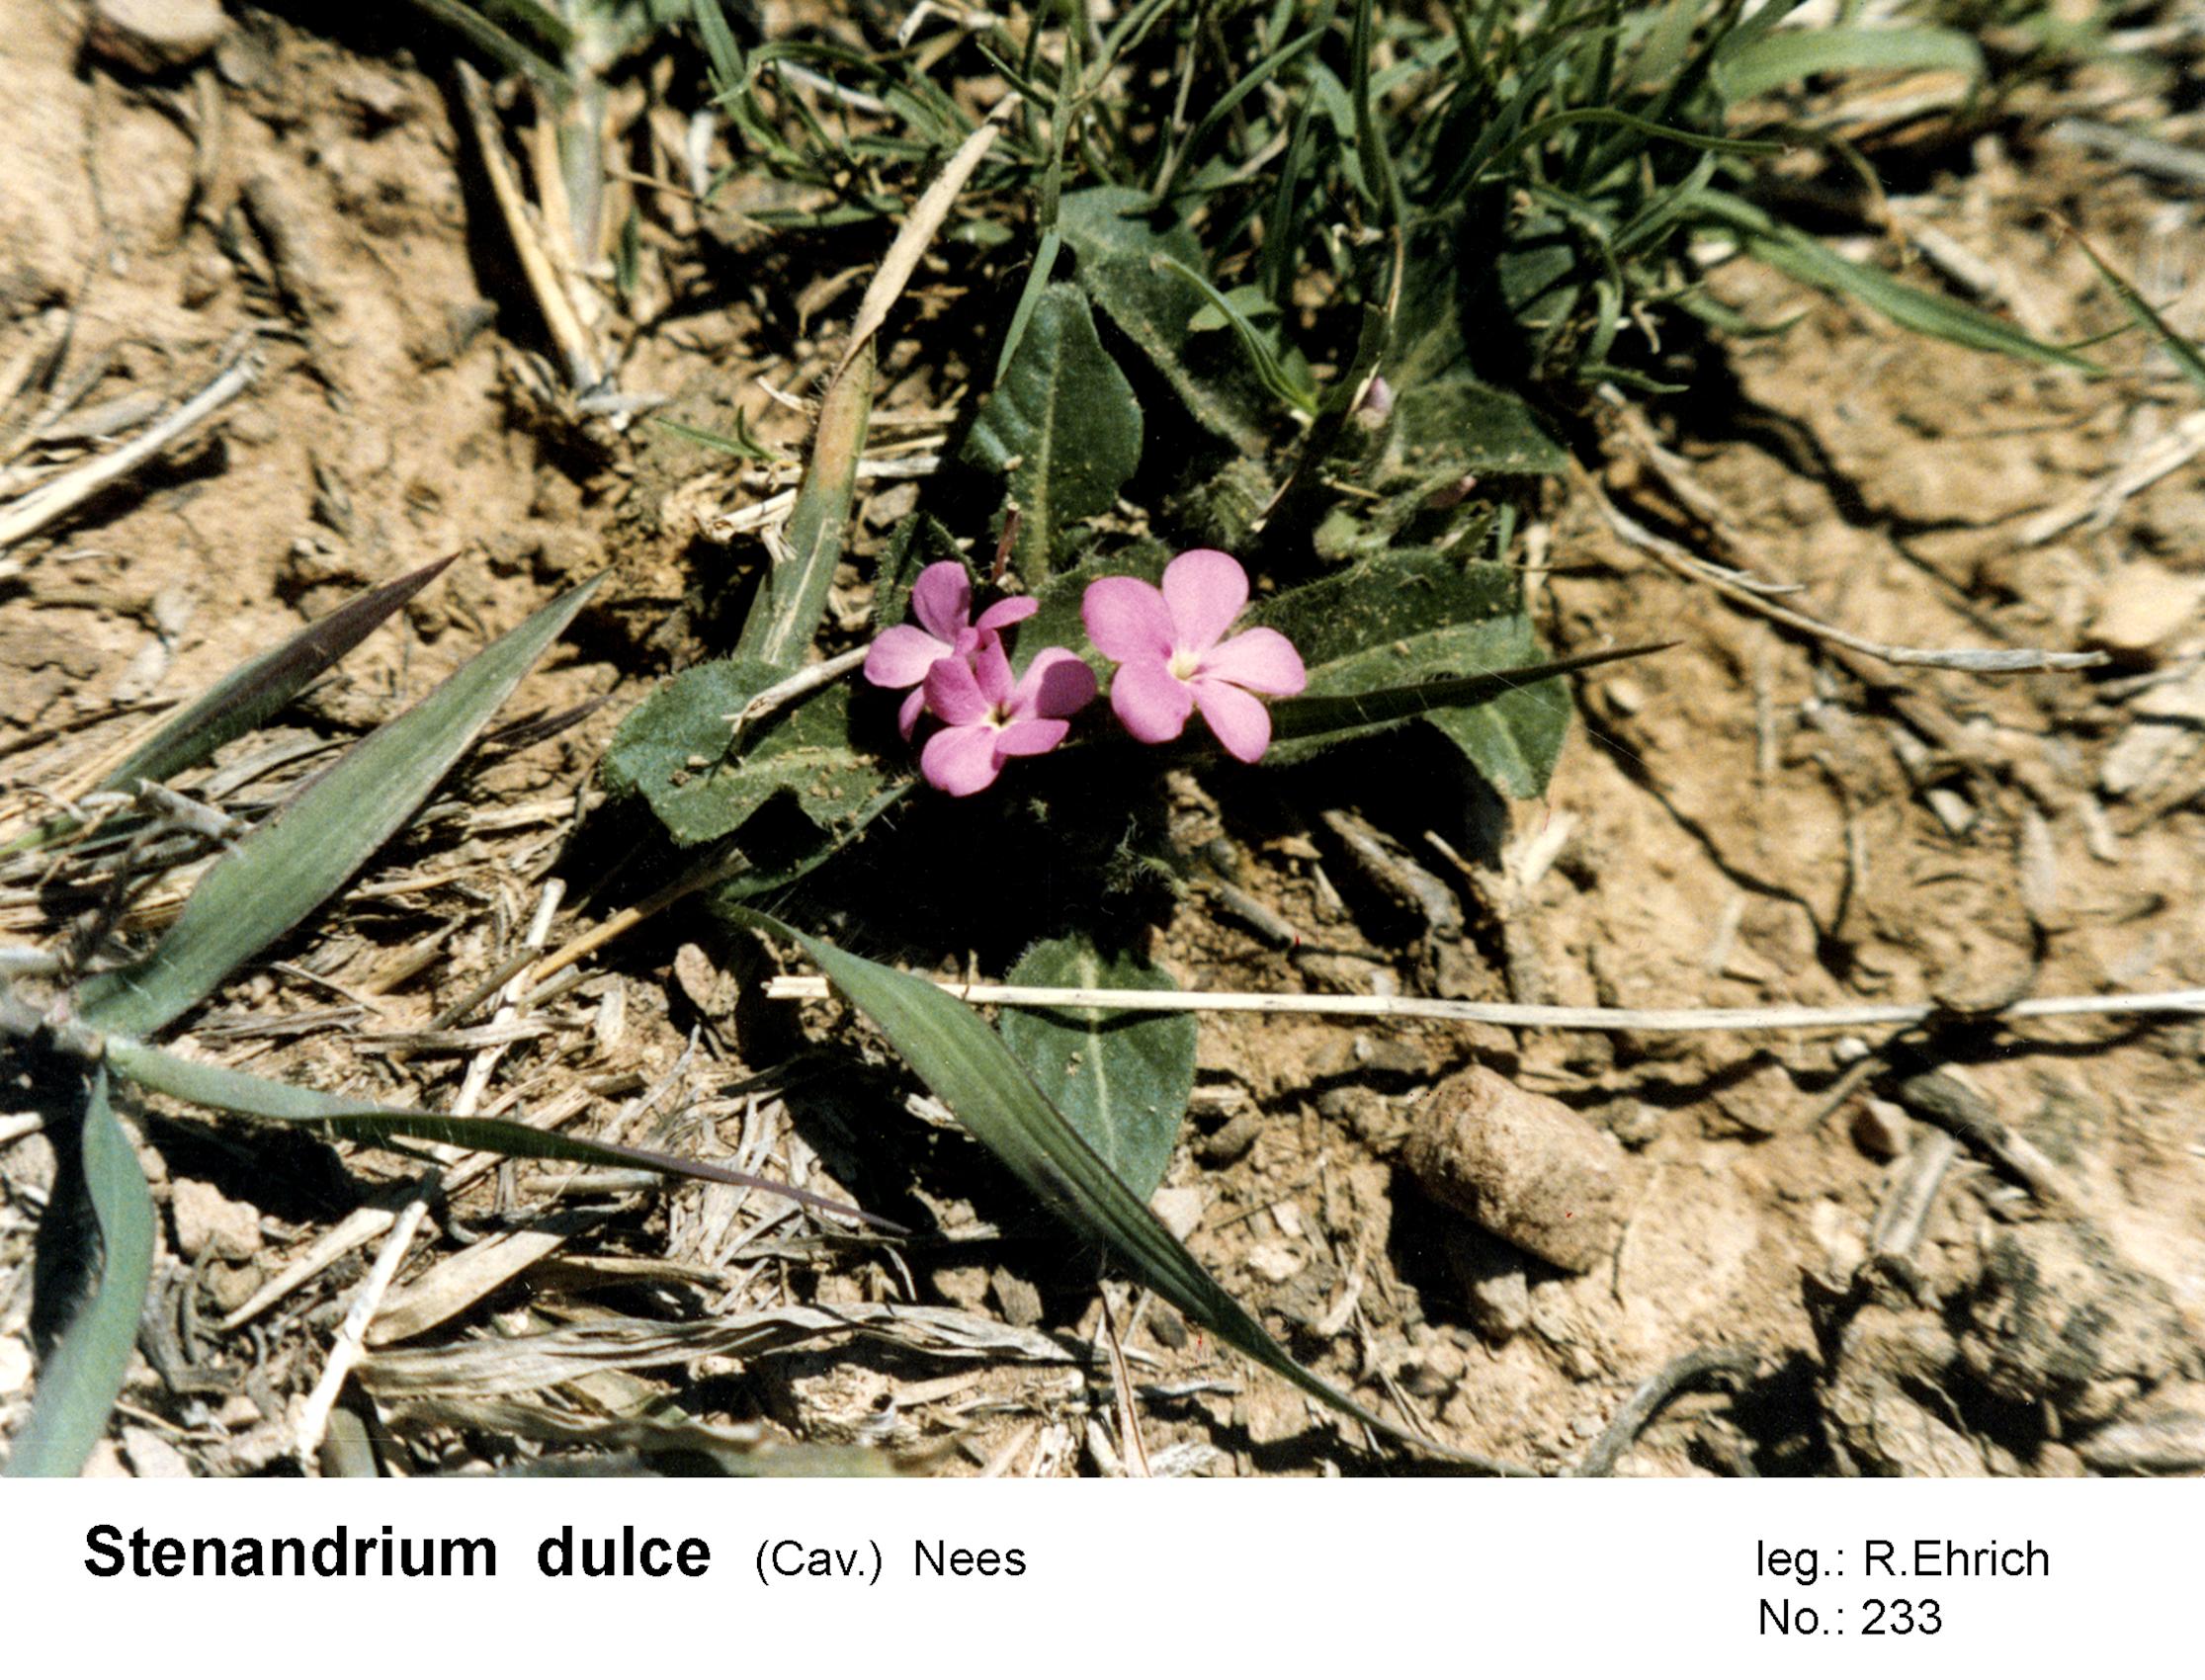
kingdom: Plantae
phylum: Tracheophyta
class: Magnoliopsida
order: Lamiales
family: Acanthaceae
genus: Stenandrium
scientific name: Stenandrium dulce
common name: Pinklet
